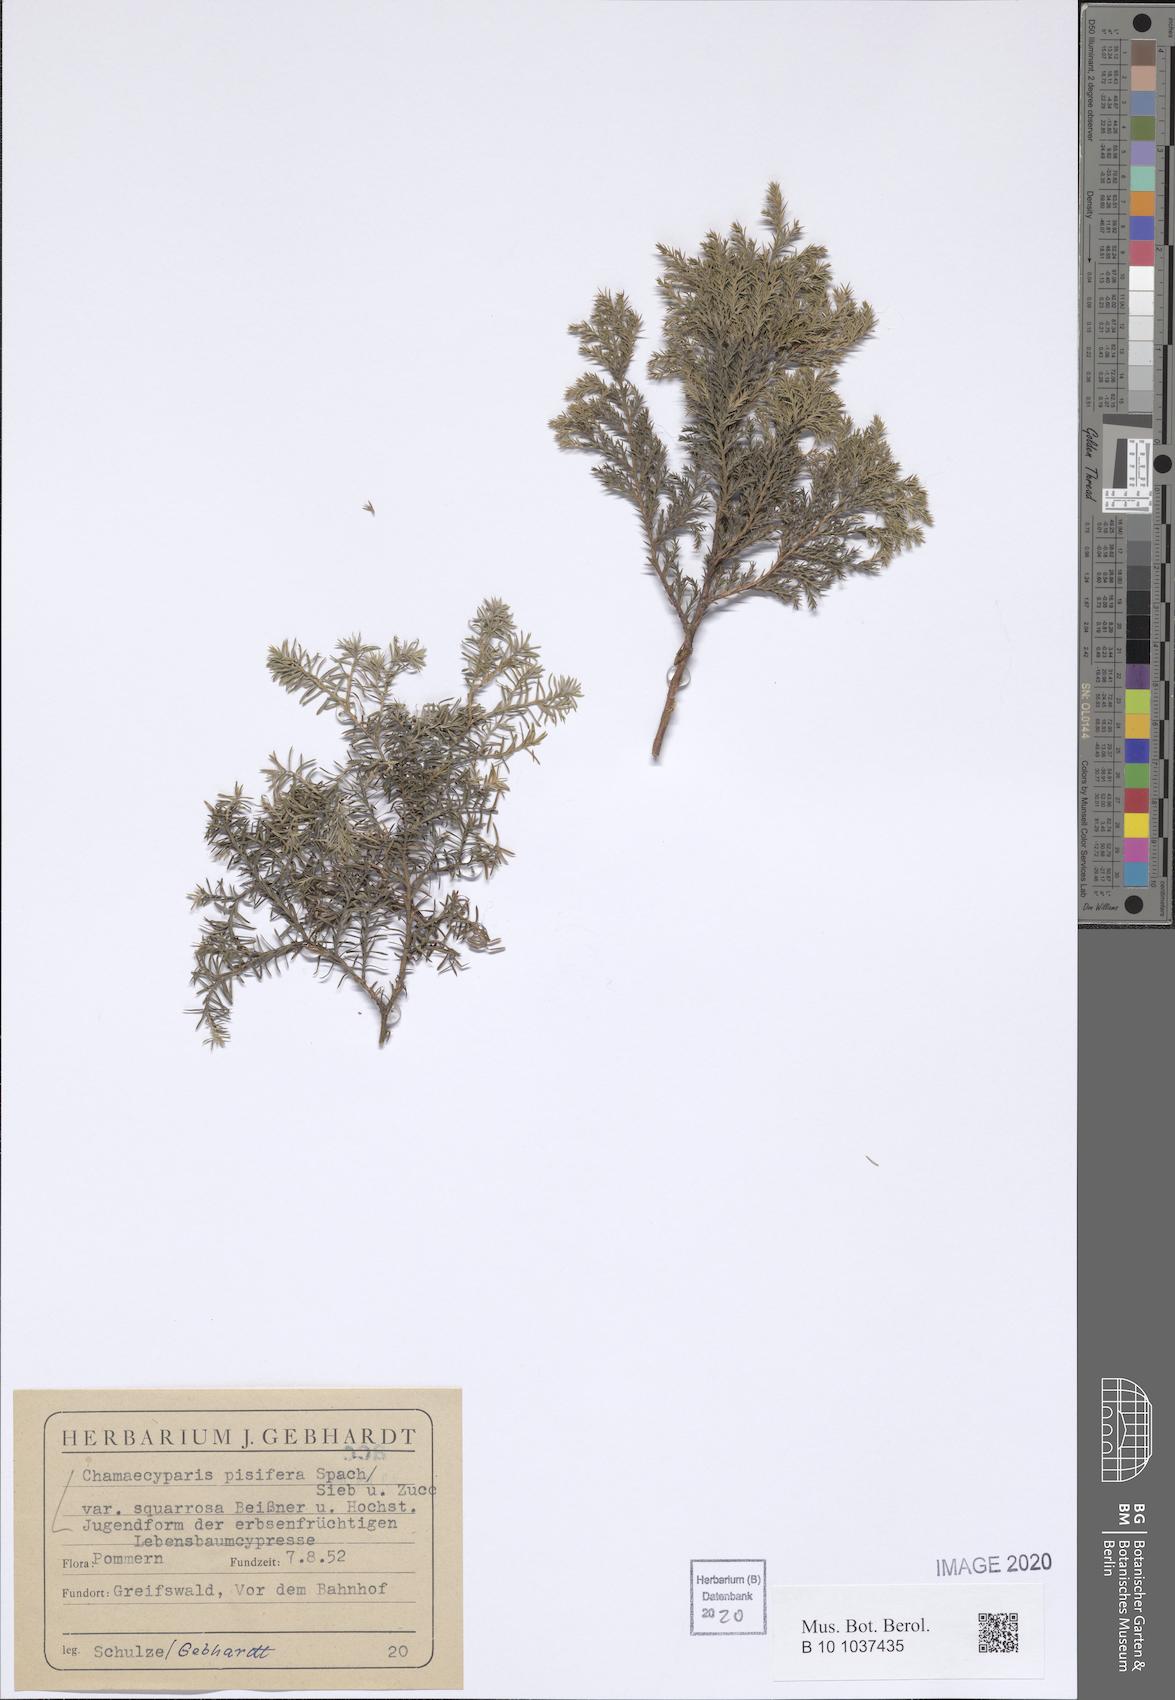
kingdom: Plantae
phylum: Tracheophyta
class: Pinopsida
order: Pinales
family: Cupressaceae
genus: Chamaecyparis
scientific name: Chamaecyparis pisifera
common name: Sawara cypress
